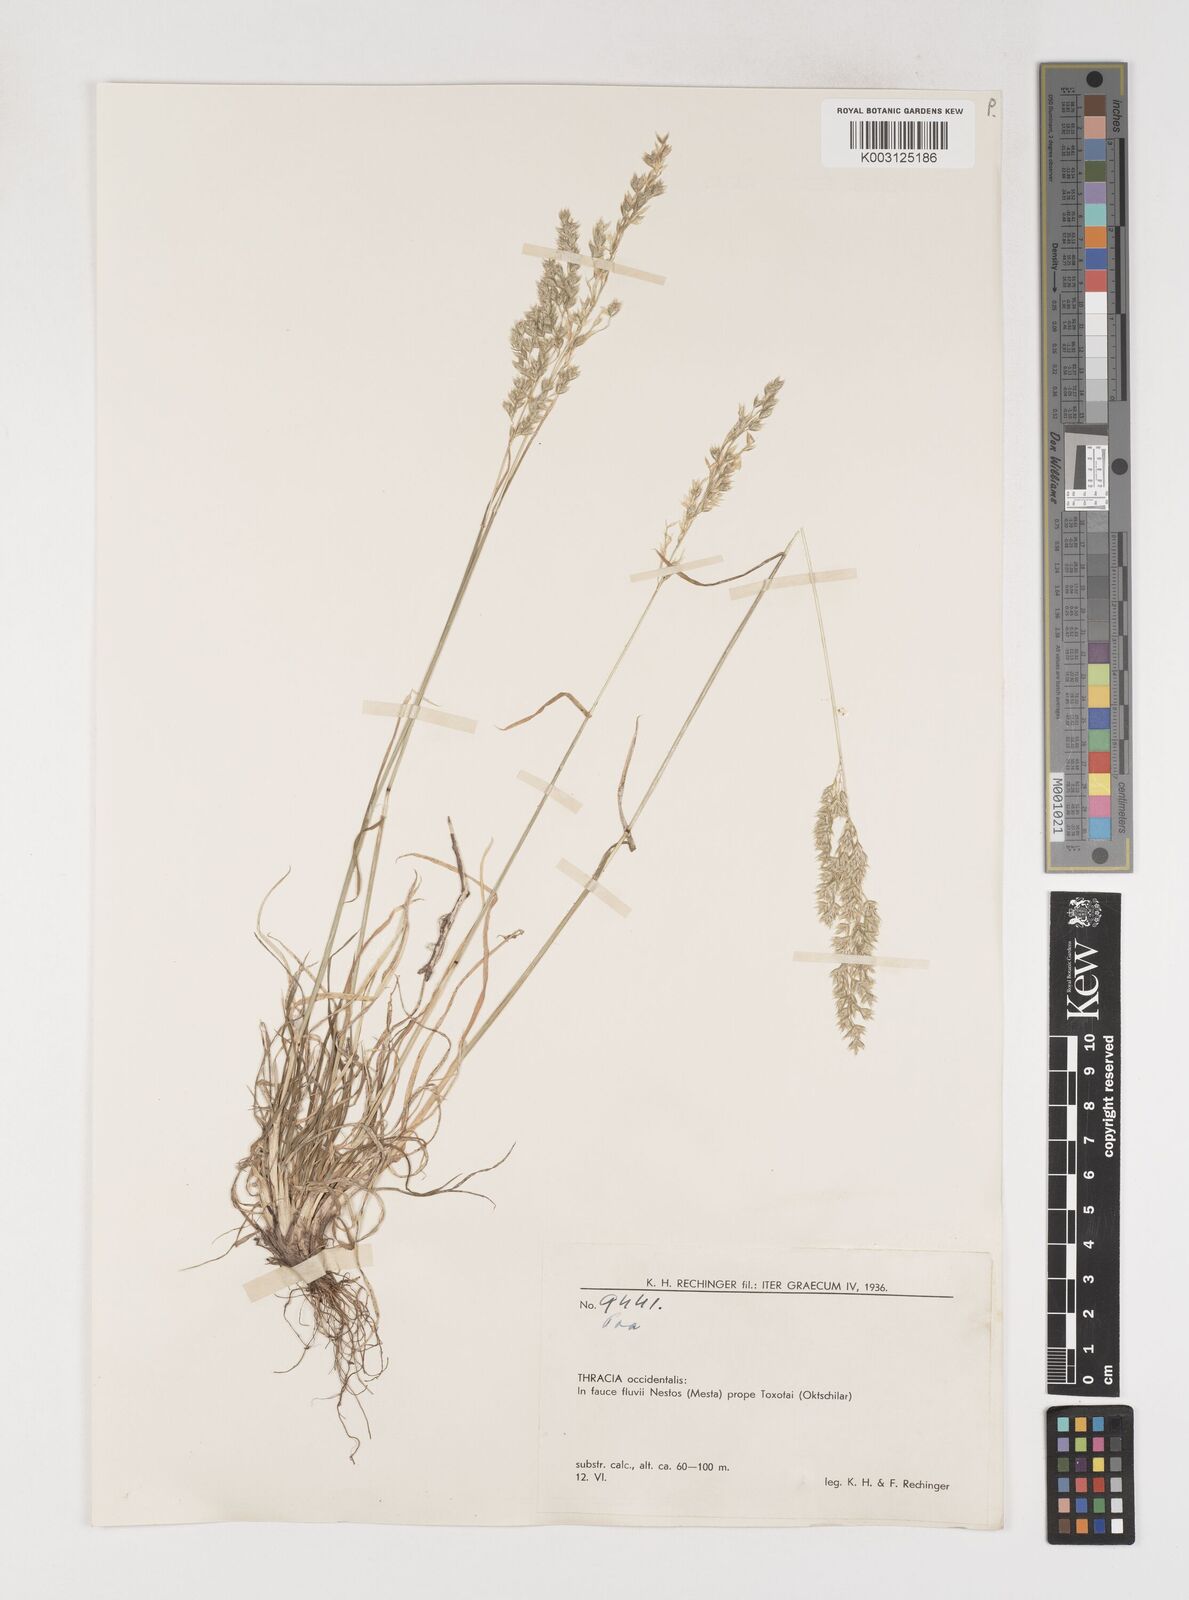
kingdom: Plantae
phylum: Tracheophyta
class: Liliopsida
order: Poales
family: Poaceae
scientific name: Poaceae
